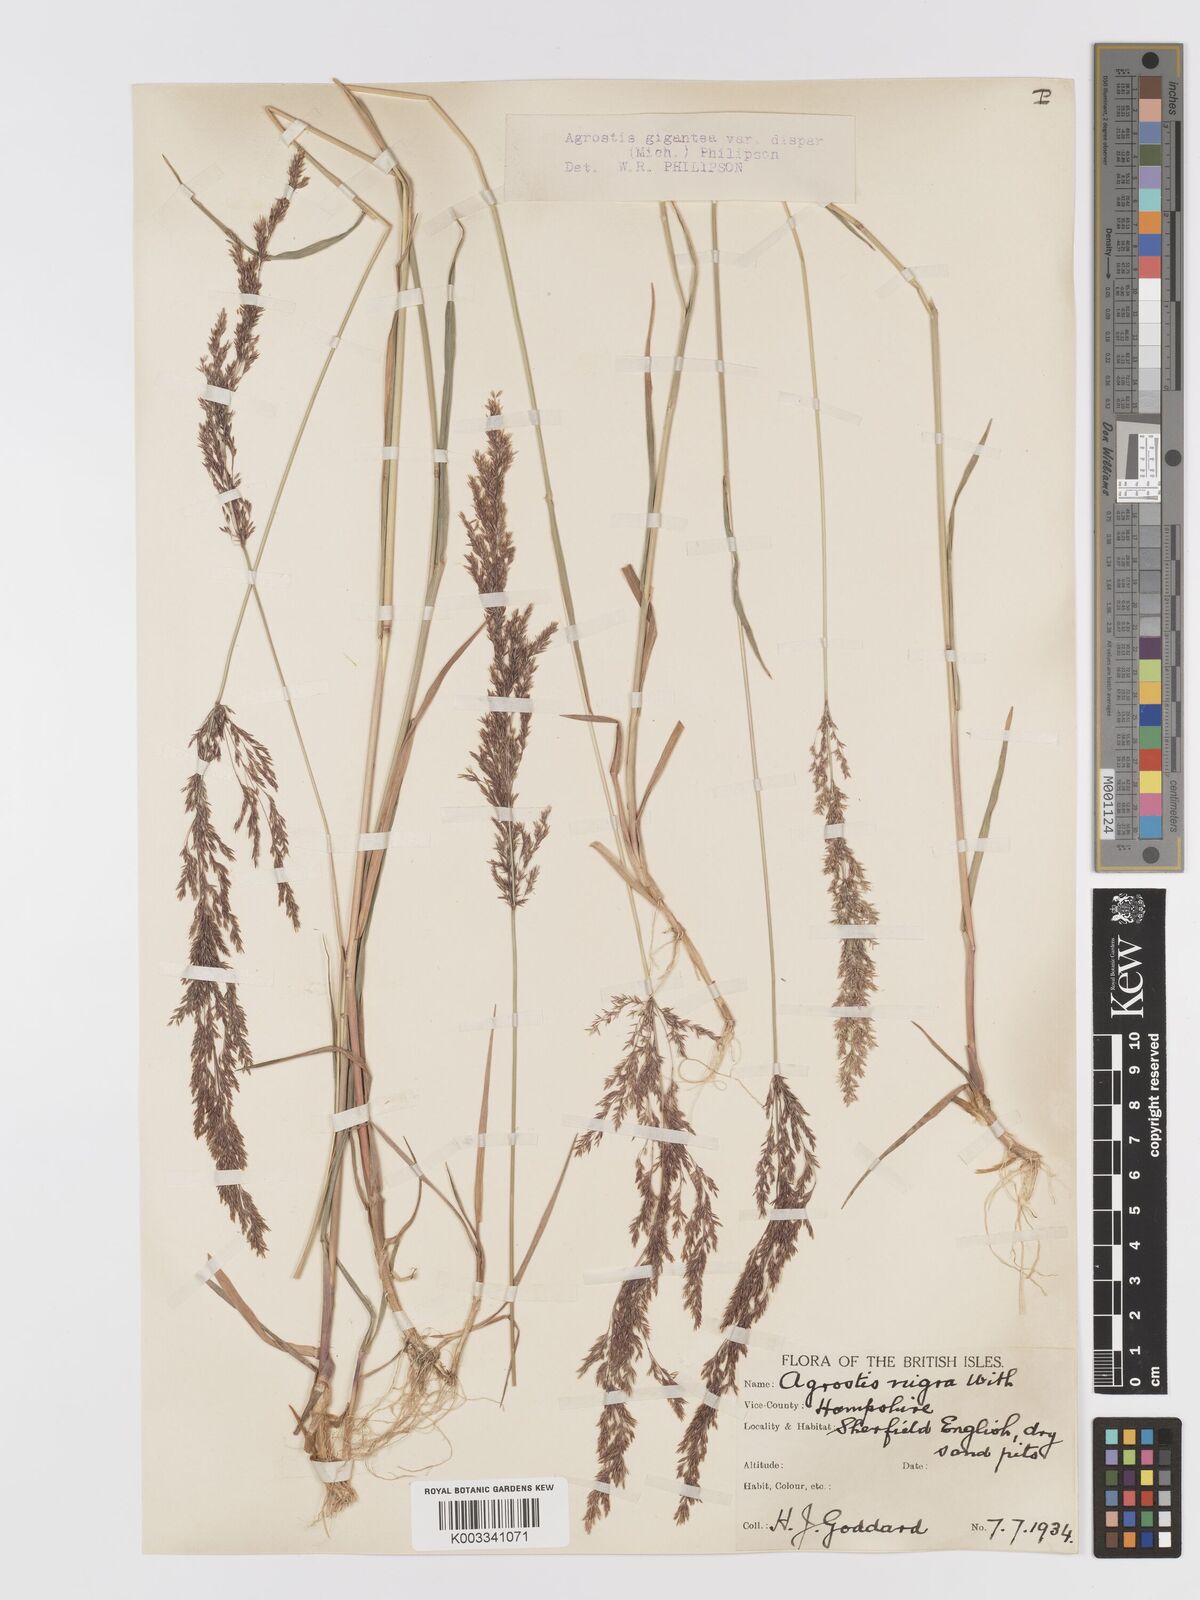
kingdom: Plantae
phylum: Tracheophyta
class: Liliopsida
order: Poales
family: Poaceae
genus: Agrostis
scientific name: Agrostis gigantea
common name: Black bent
